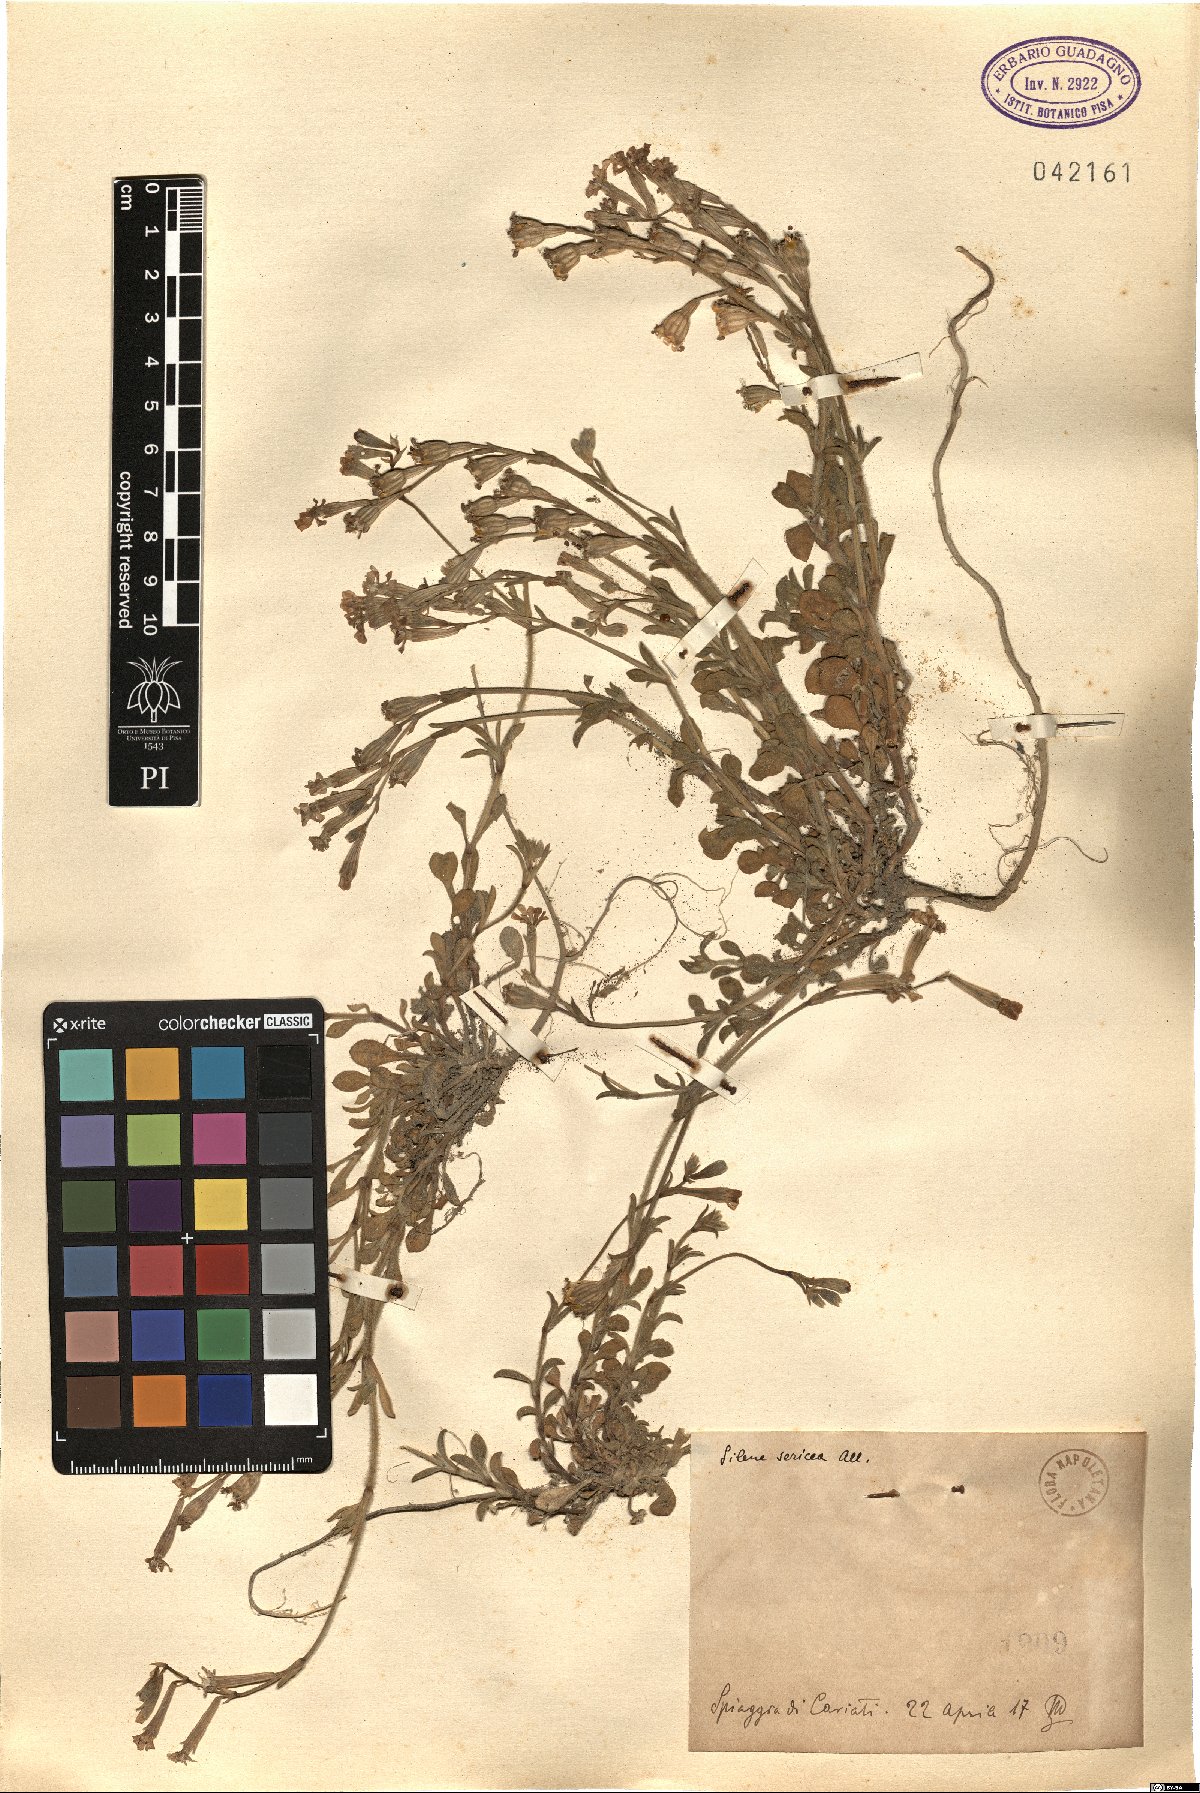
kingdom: Plantae
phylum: Tracheophyta
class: Magnoliopsida
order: Caryophyllales
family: Caryophyllaceae
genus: Silene
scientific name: Silene sericea
